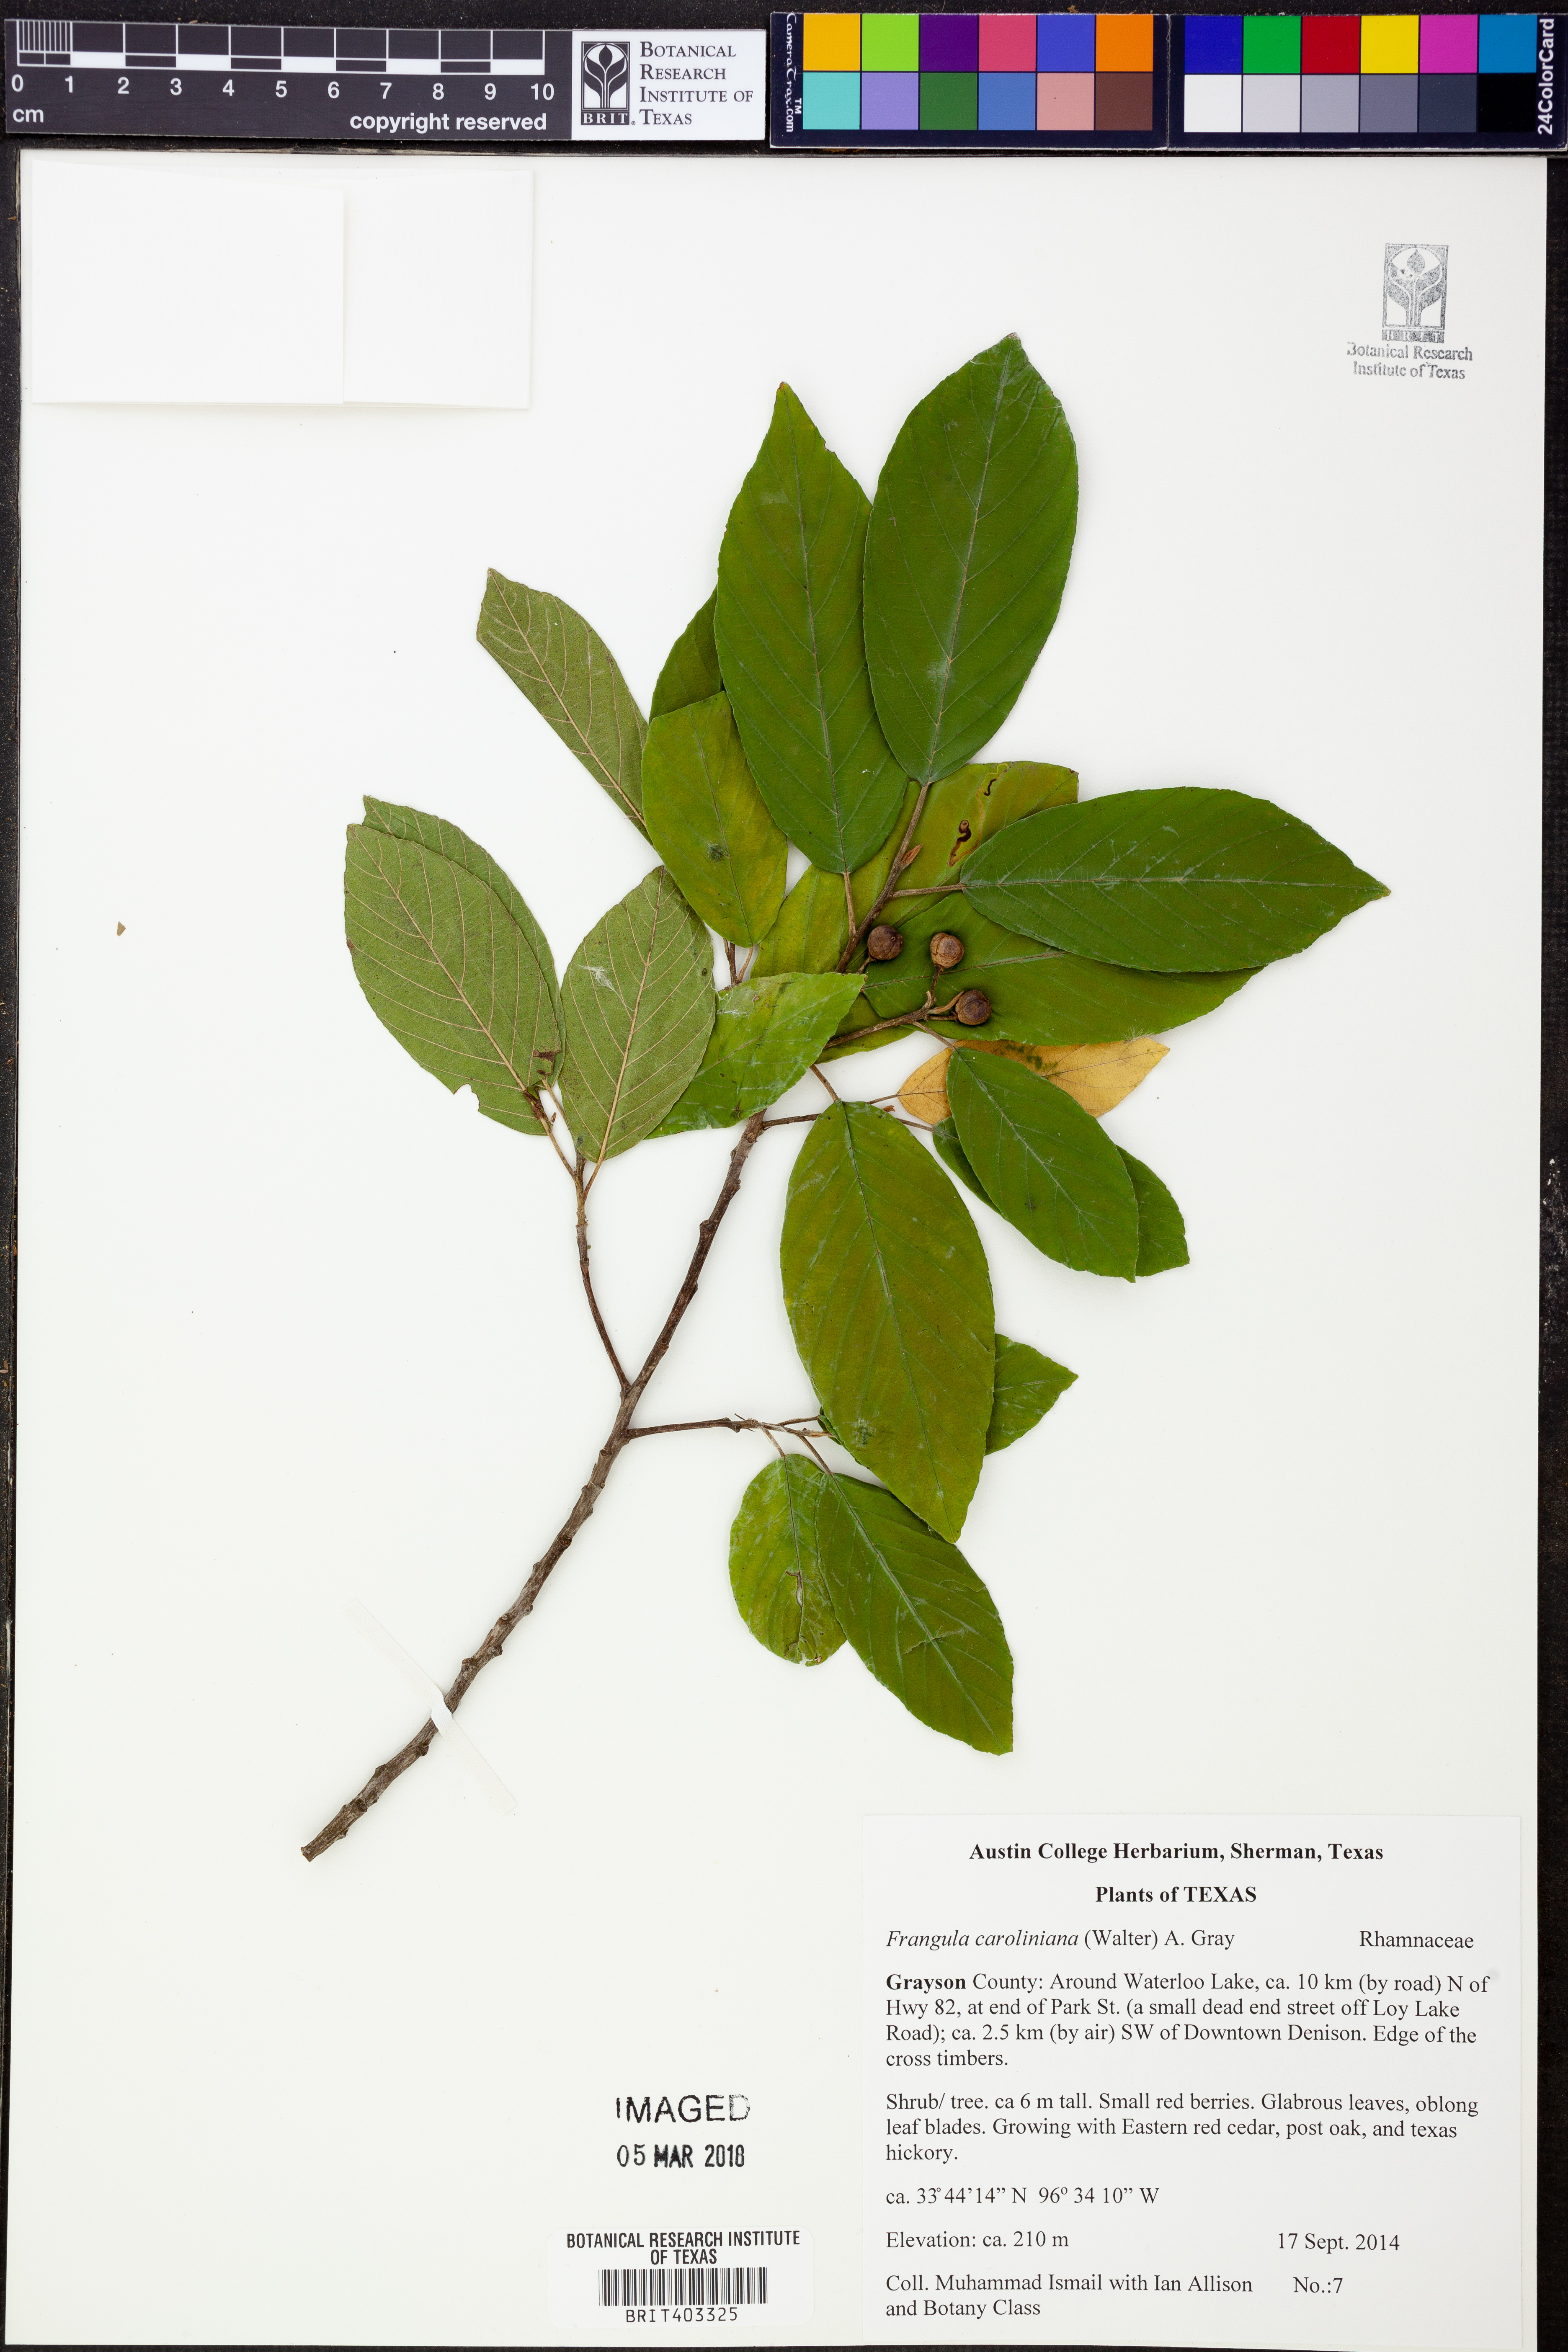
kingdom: Plantae
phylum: Tracheophyta
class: Magnoliopsida
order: Rosales
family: Rhamnaceae
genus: Frangula
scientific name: Frangula caroliniana
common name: Carolina buckthorn
